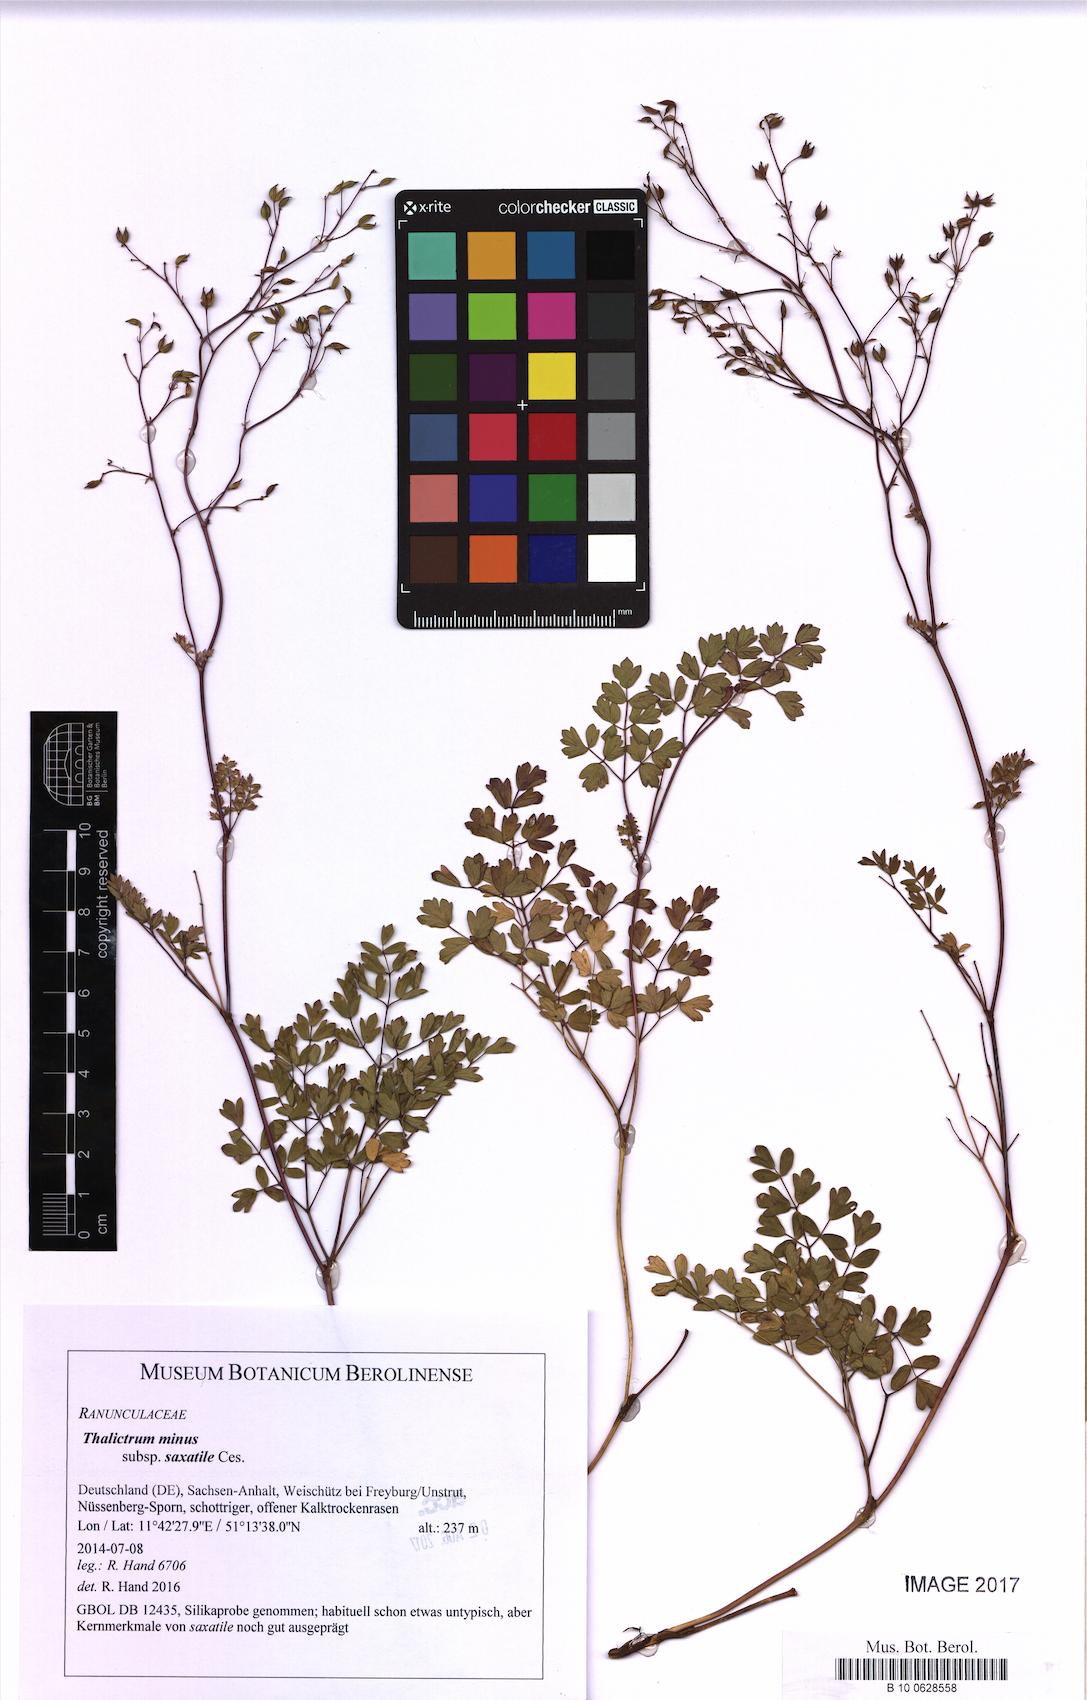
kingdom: Plantae
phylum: Tracheophyta
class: Magnoliopsida
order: Ranunculales
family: Ranunculaceae
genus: Thalictrum
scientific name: Thalictrum minus
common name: Lesser meadow-rue
